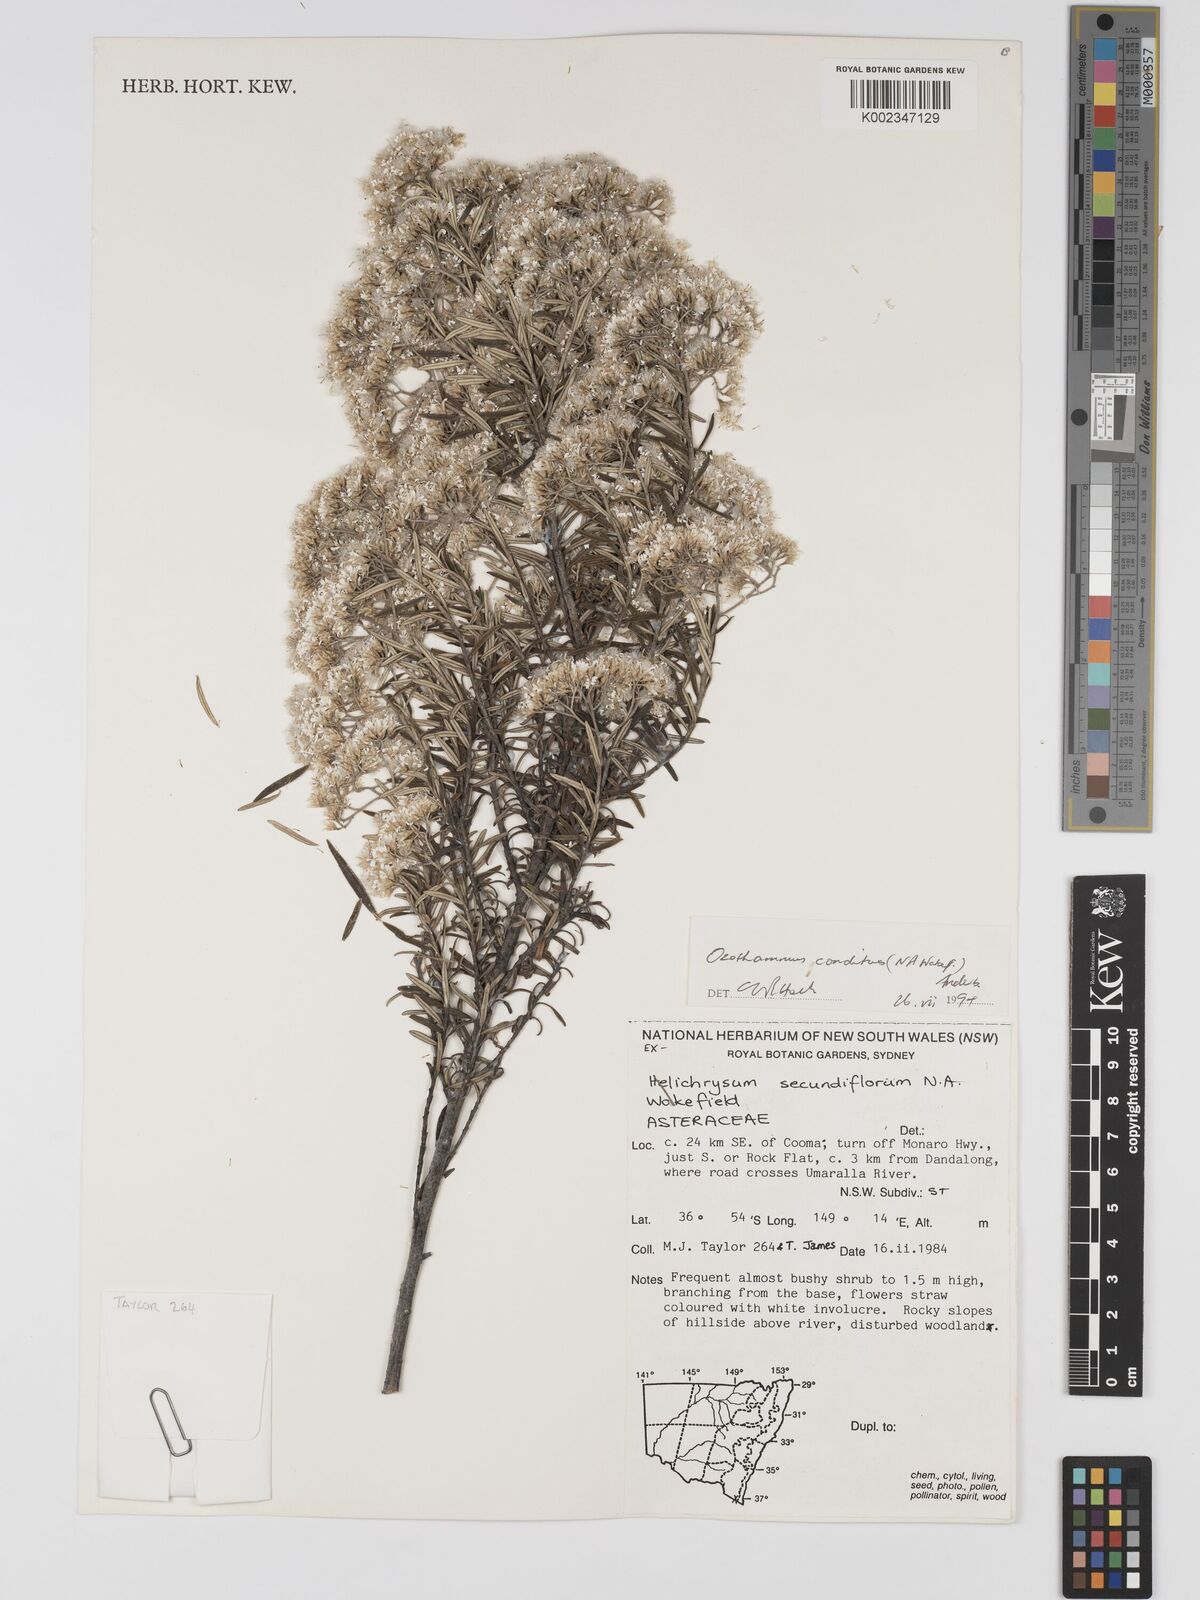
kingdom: Plantae
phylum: Tracheophyta
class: Magnoliopsida
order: Asterales
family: Asteraceae
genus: Ozothamnus
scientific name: Ozothamnus conditus
